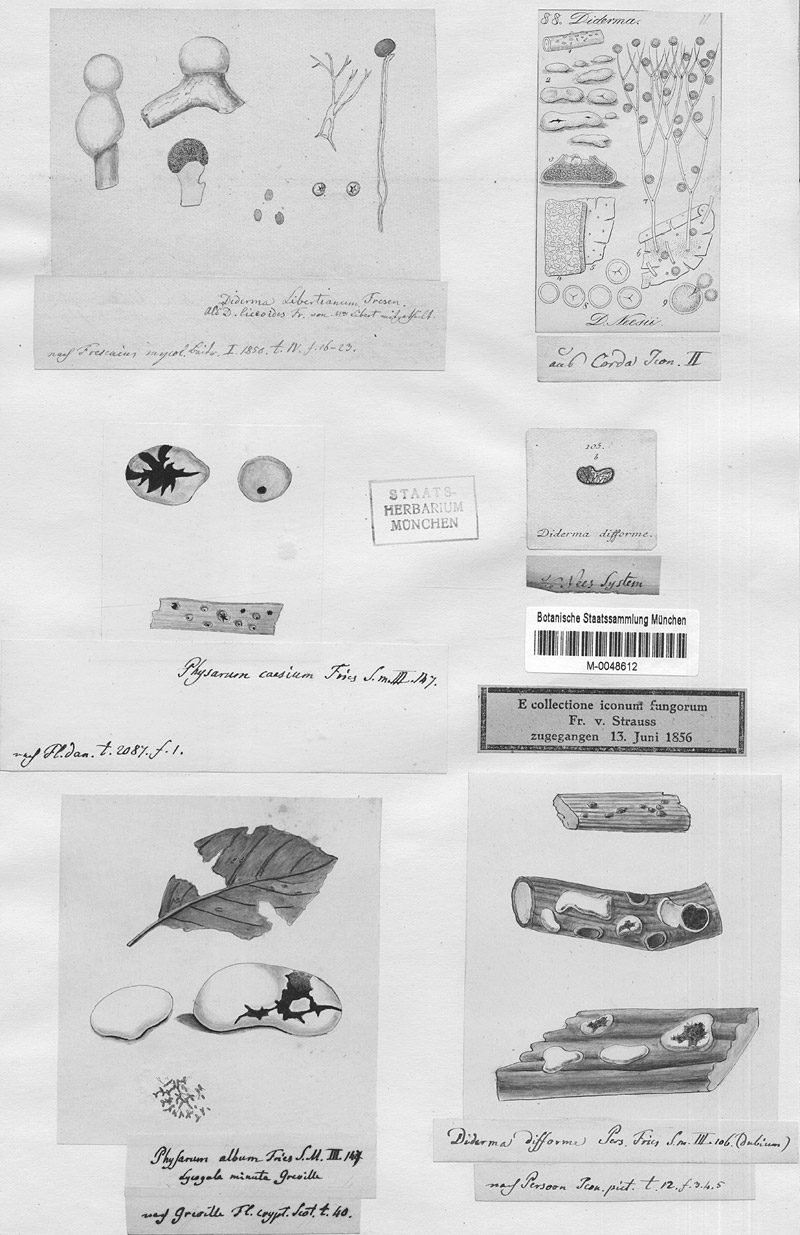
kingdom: Protozoa
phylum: Mycetozoa
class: Myxomycetes
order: Physarales
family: Didymiaceae
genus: Didymium
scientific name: Didymium difforme
